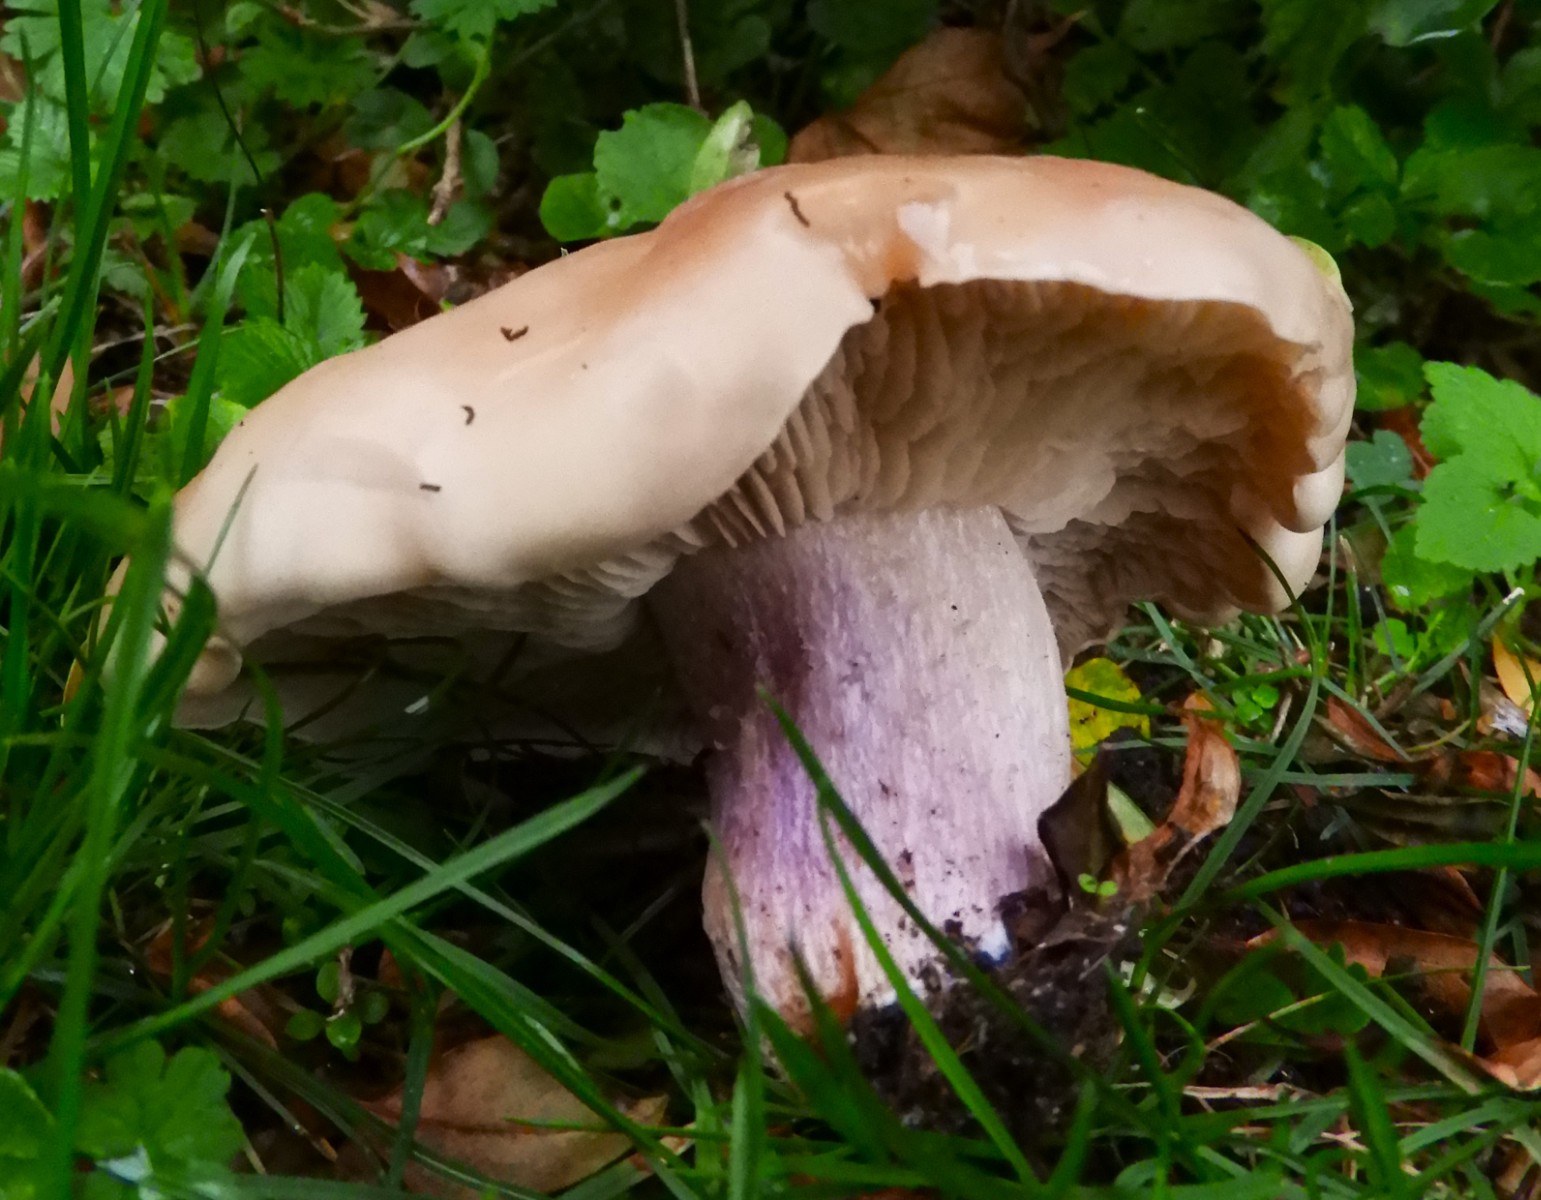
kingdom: Fungi
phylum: Basidiomycota
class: Agaricomycetes
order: Agaricales
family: Tricholomataceae
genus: Lepista
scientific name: Lepista personata
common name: bleg hekseringshat
